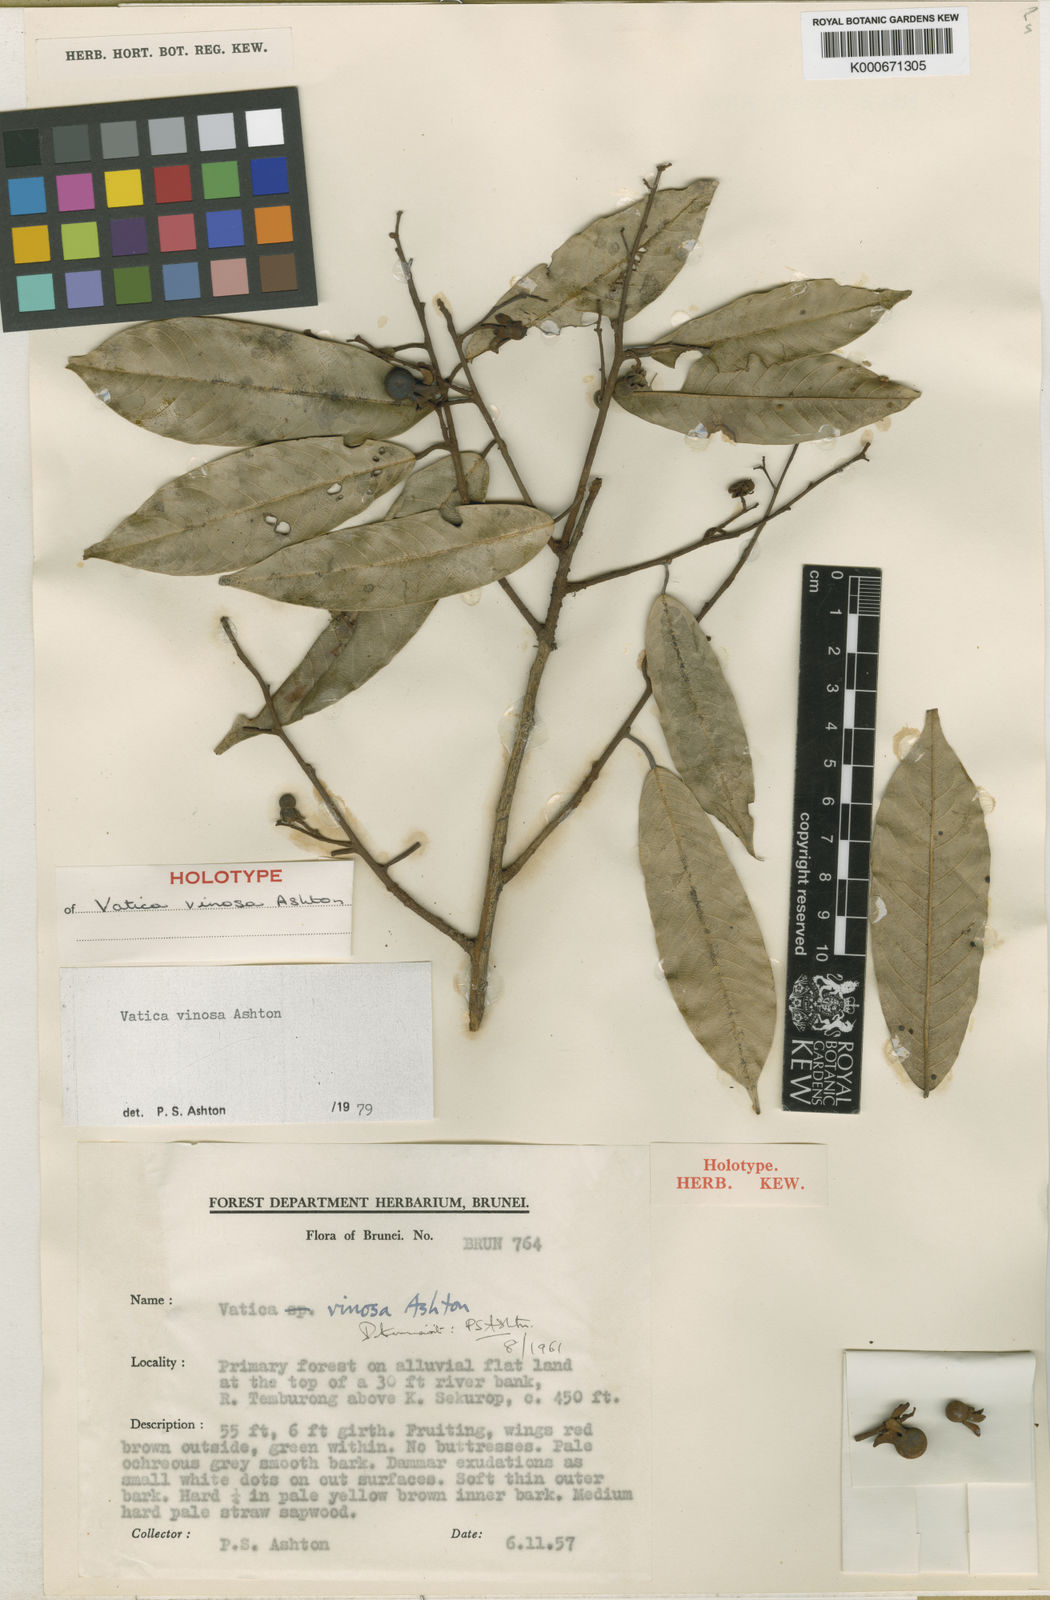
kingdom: Plantae
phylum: Tracheophyta
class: Magnoliopsida
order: Malvales
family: Dipterocarpaceae
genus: Vatica
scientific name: Vatica vinosa
